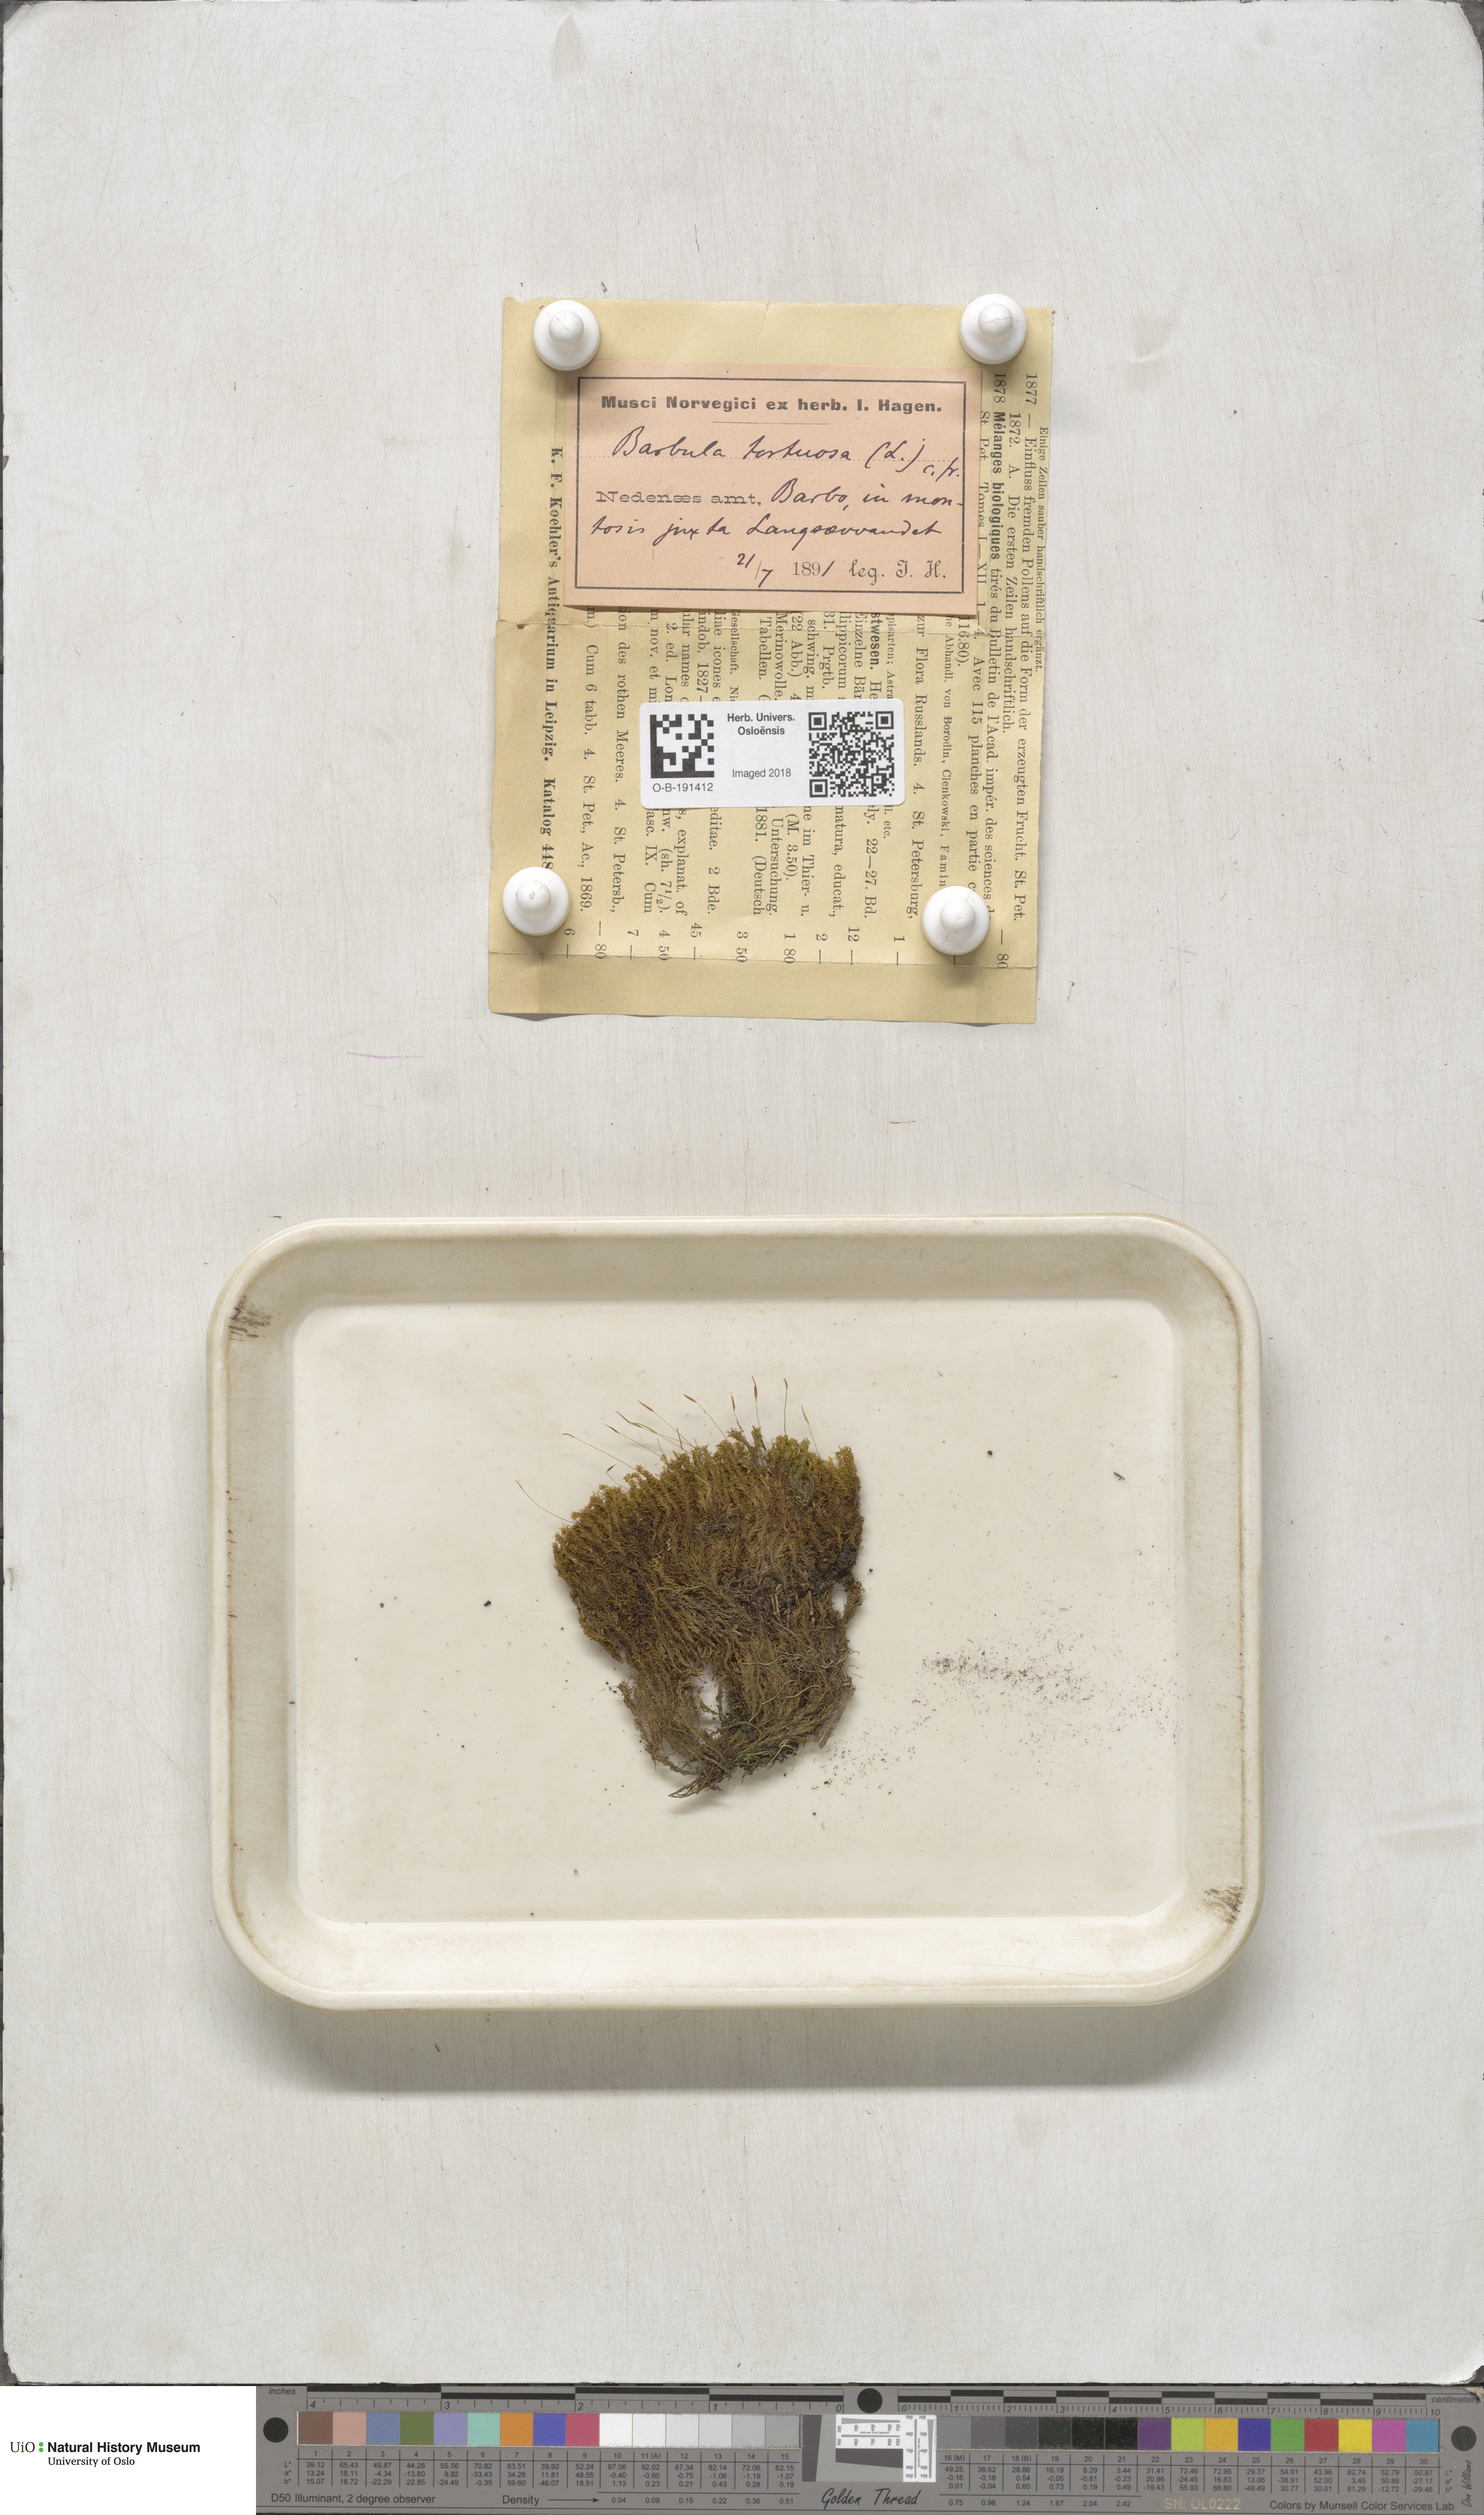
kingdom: Plantae
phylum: Bryophyta
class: Bryopsida
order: Pottiales
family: Pottiaceae
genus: Tortella
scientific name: Tortella tortuosa
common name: Frizzled crisp moss
